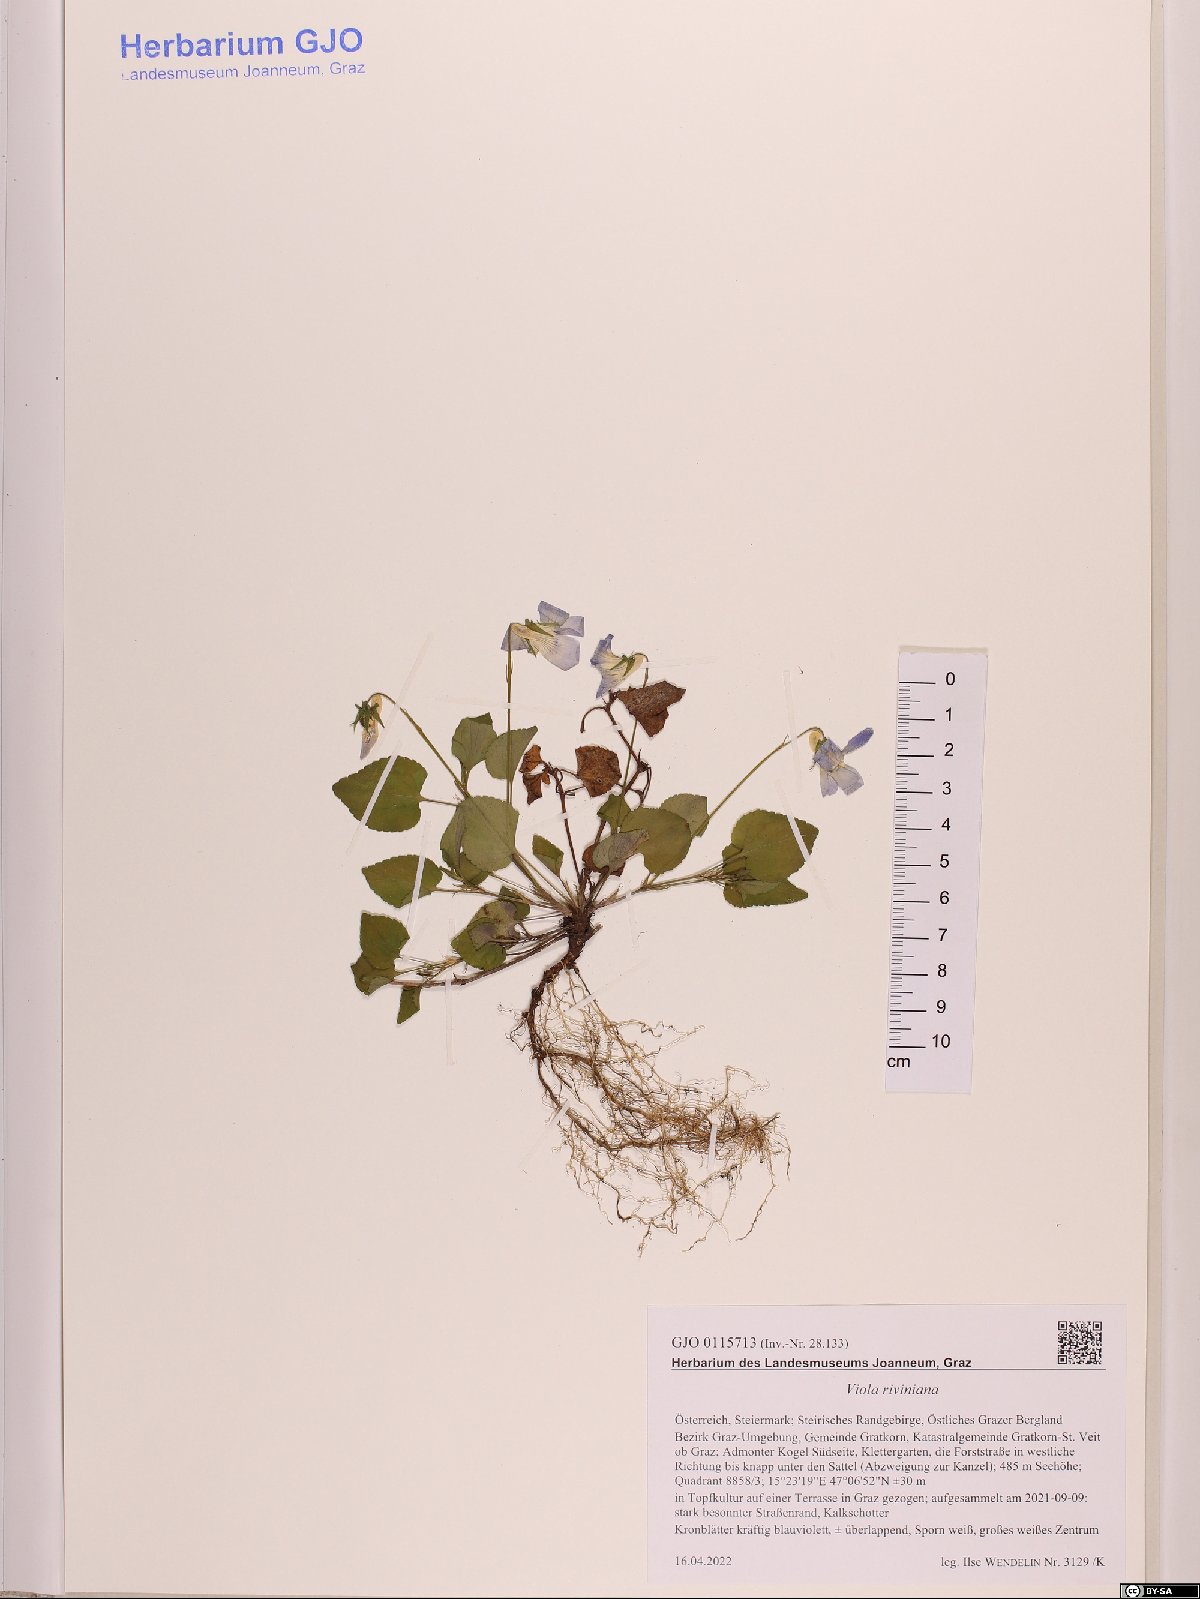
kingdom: Plantae
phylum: Tracheophyta
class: Magnoliopsida
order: Malpighiales
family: Violaceae
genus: Viola
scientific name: Viola riviniana
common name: Common dog-violet
